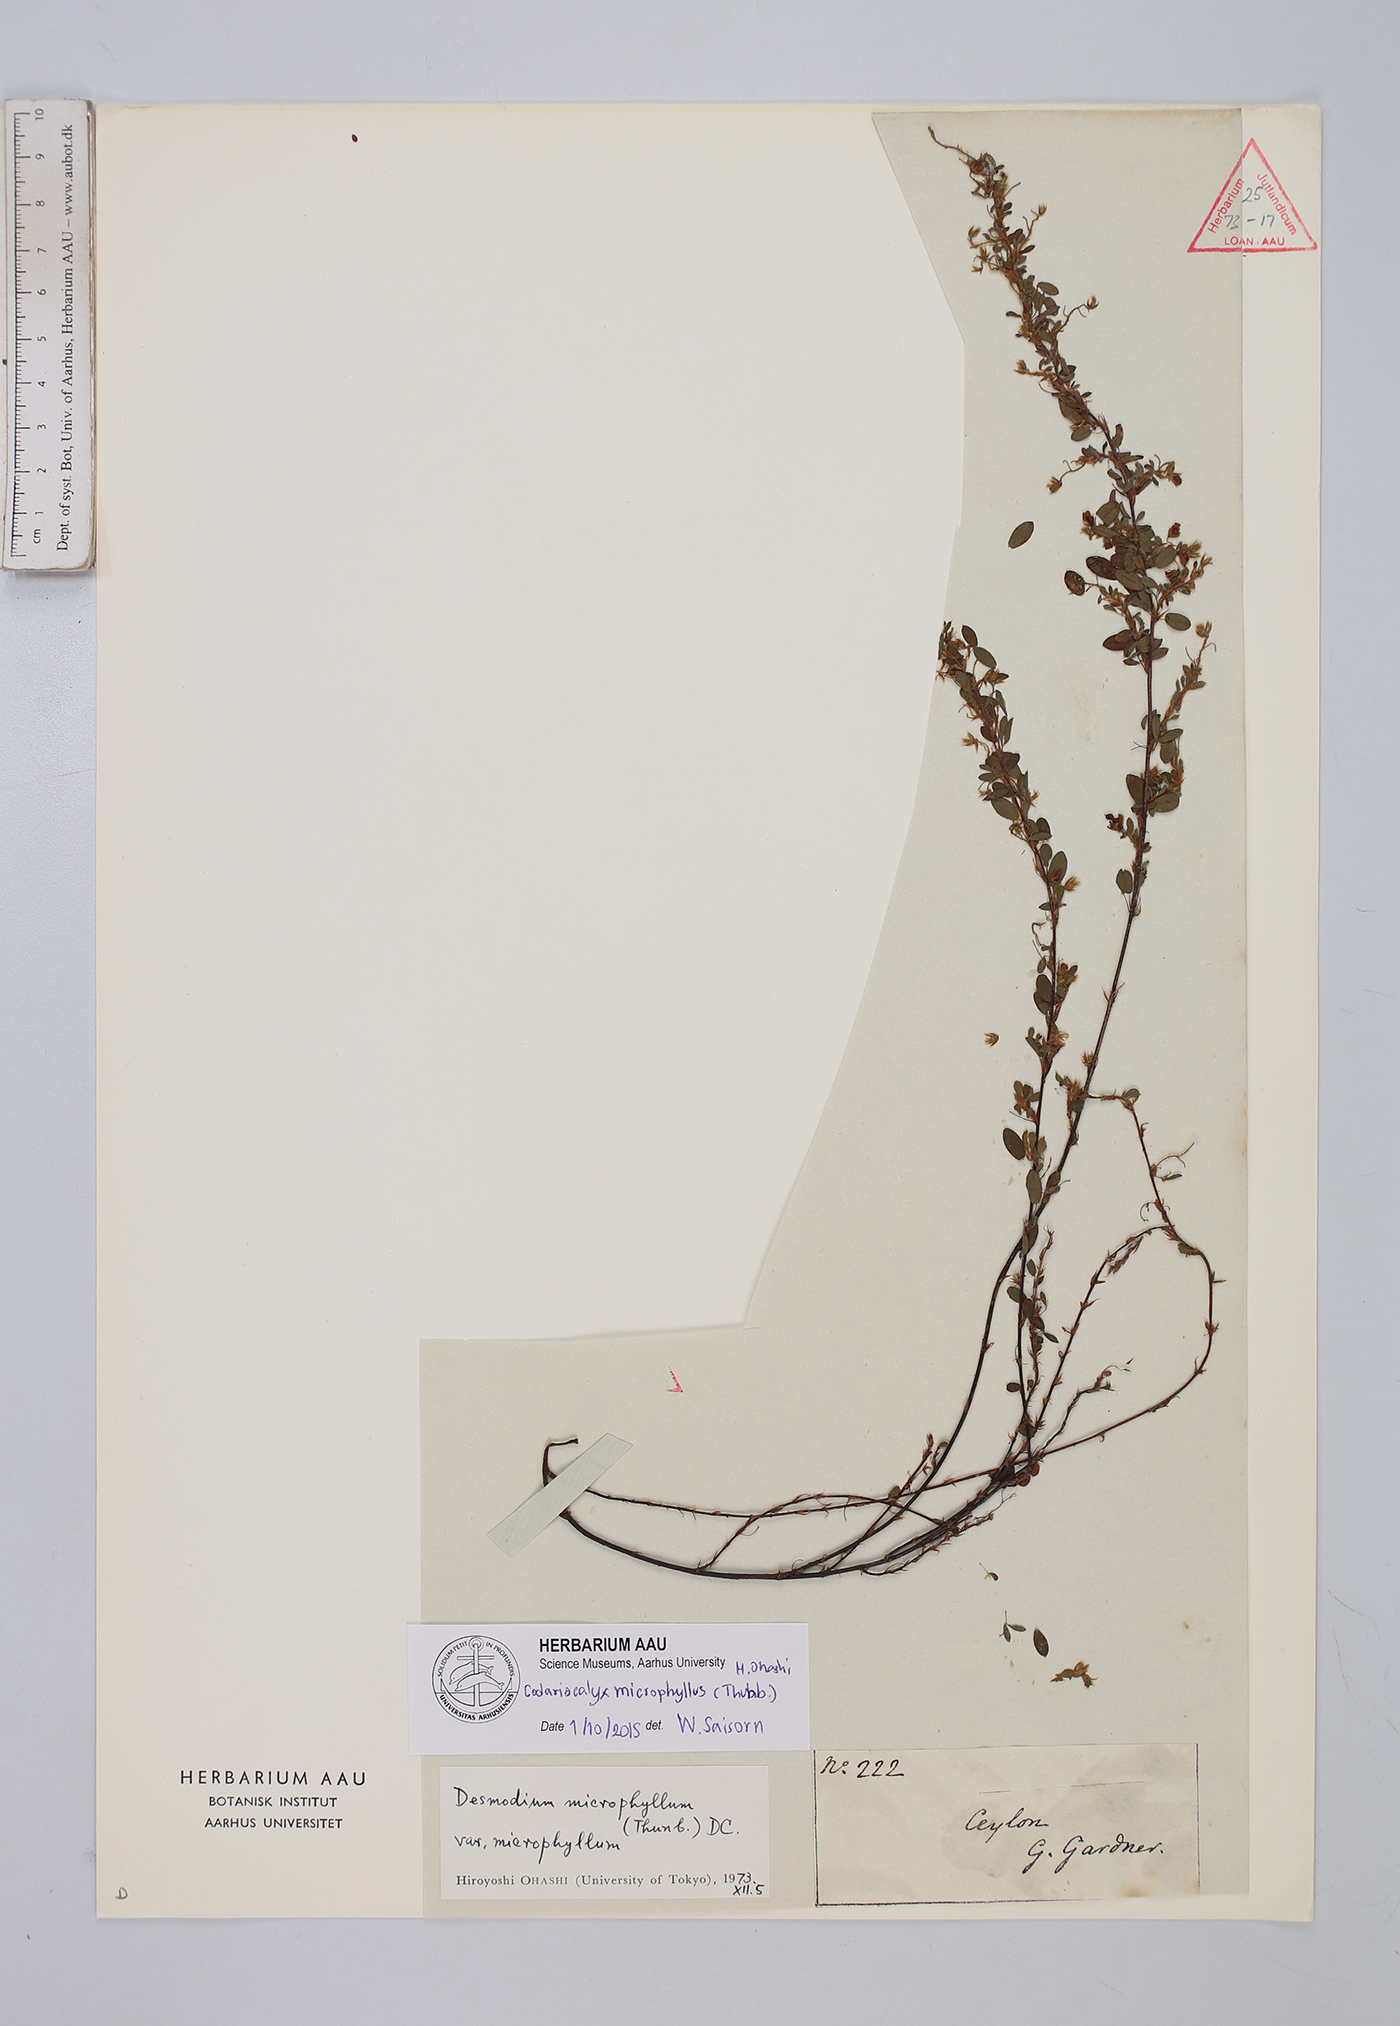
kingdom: Plantae
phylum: Tracheophyta
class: Magnoliopsida
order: Fabales
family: Fabaceae
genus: Leptodesmia
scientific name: Leptodesmia microphylla
